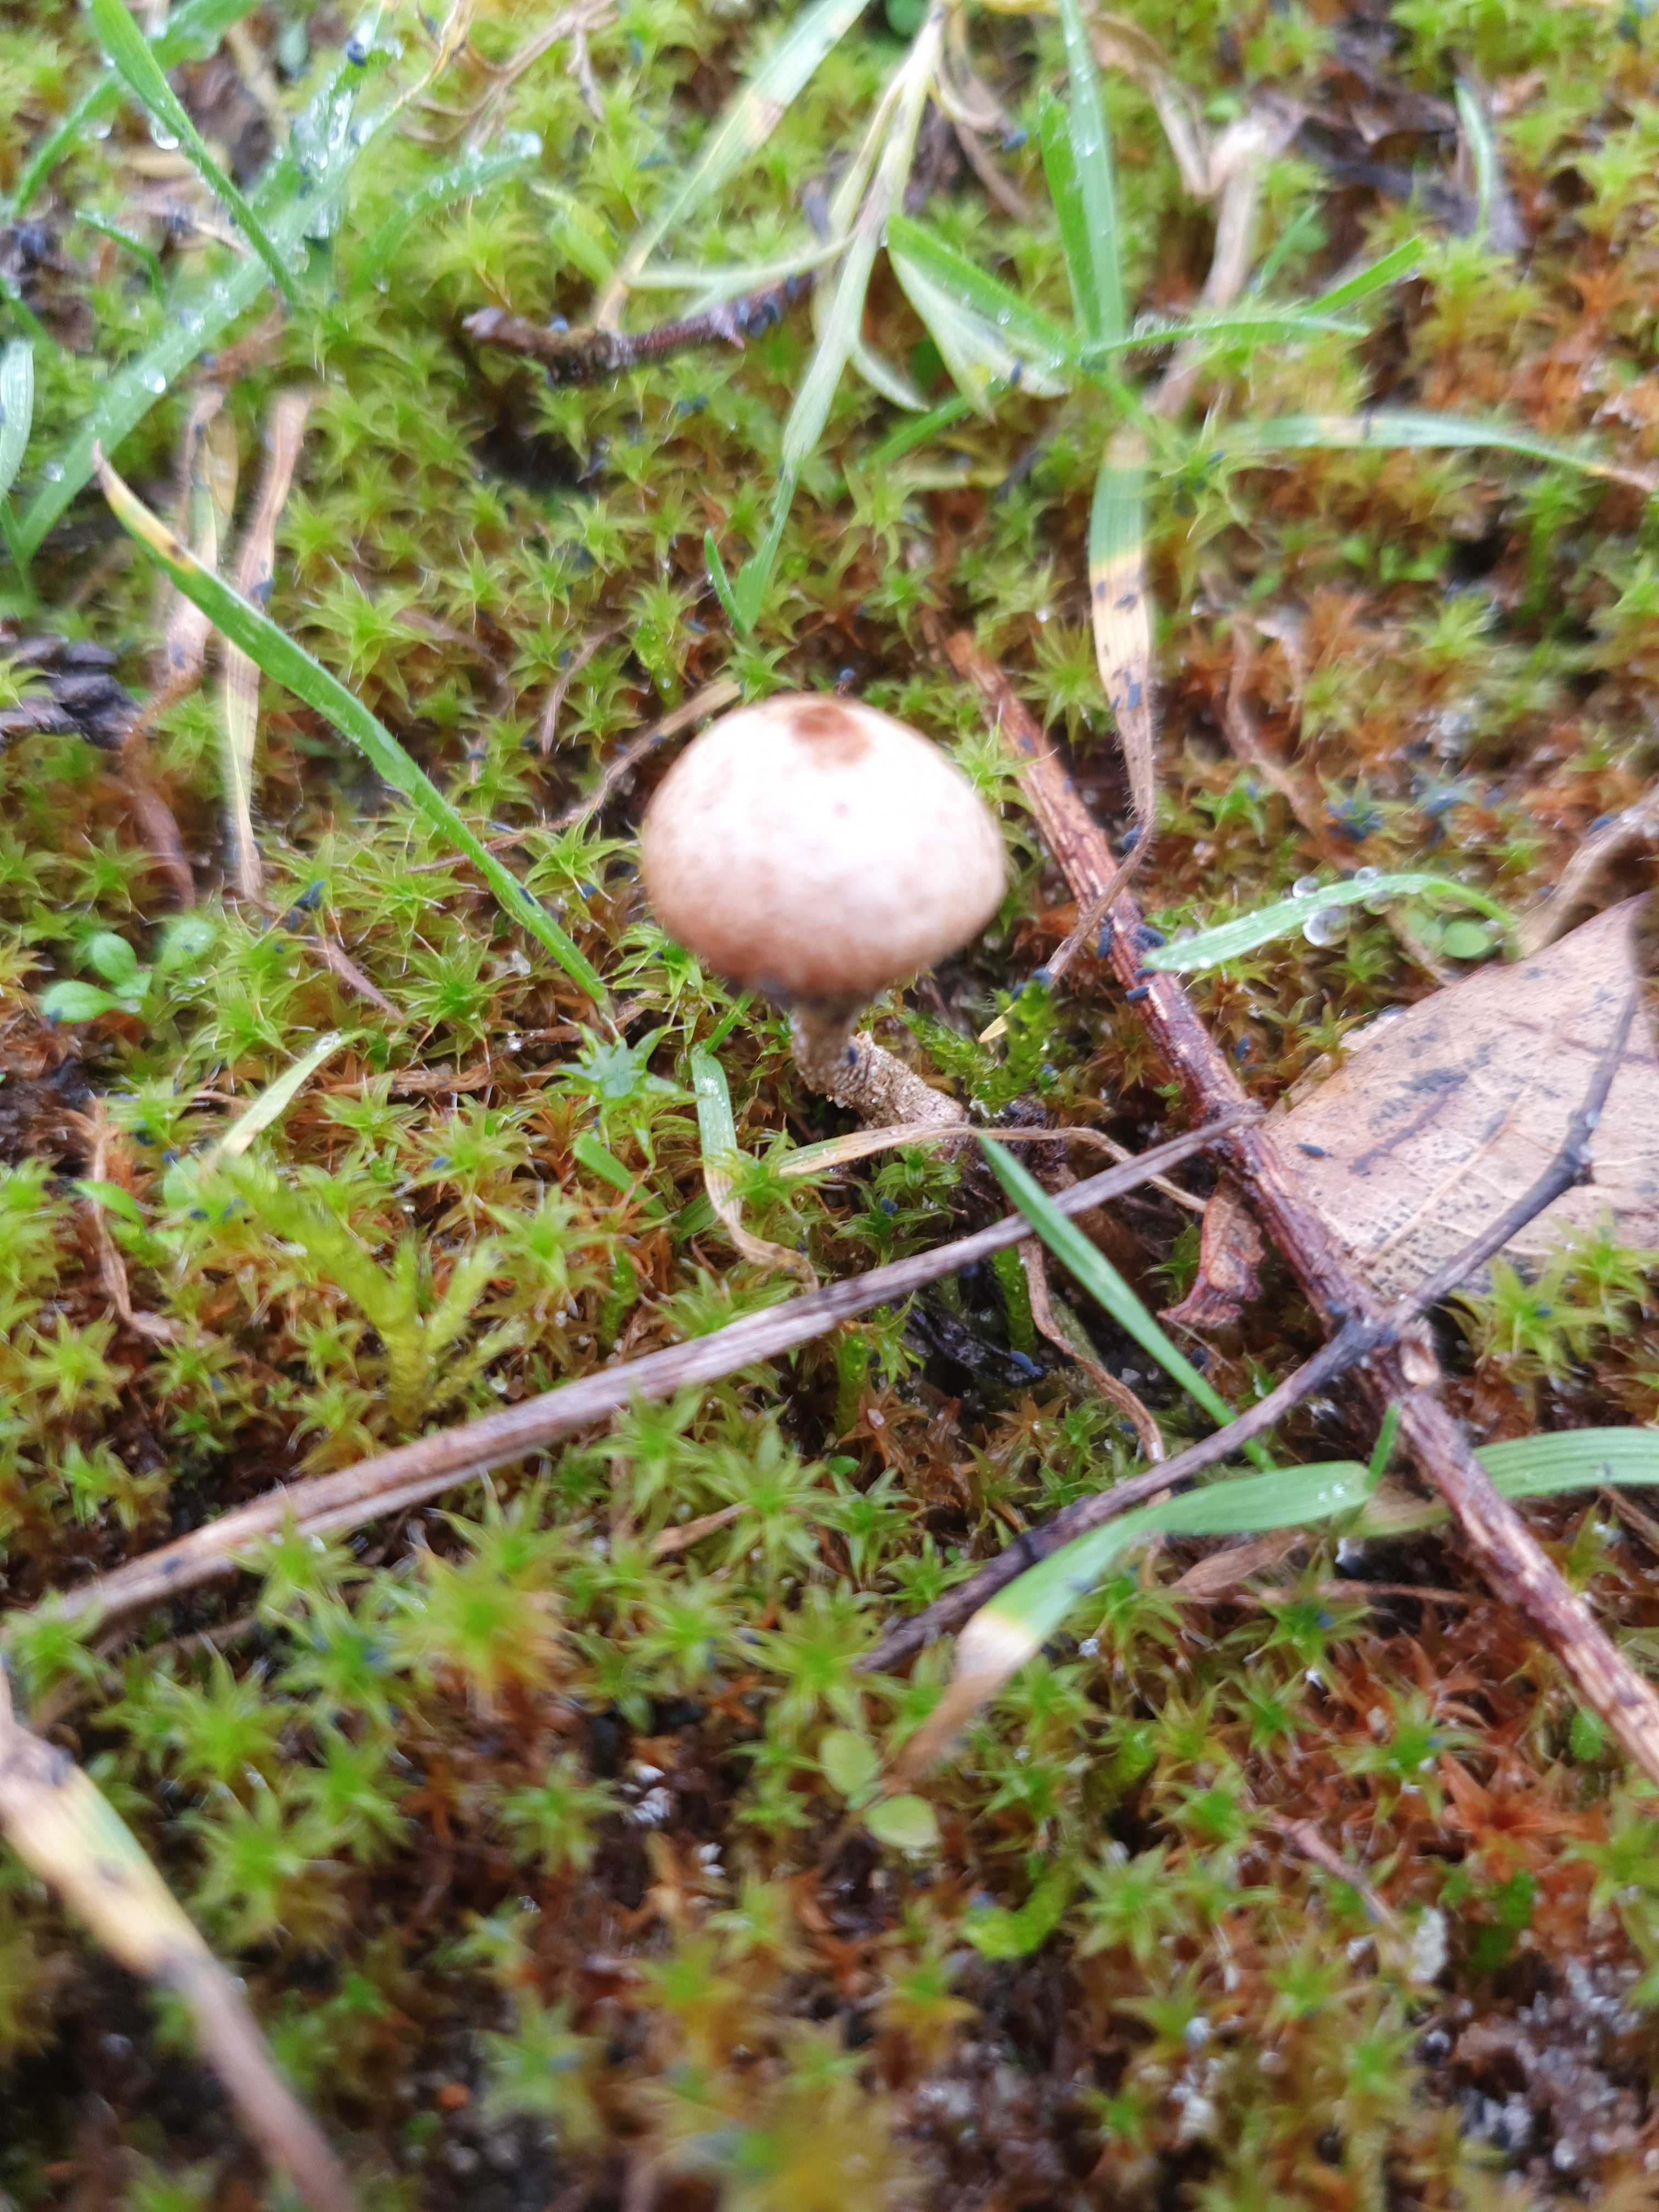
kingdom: Fungi
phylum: Basidiomycota
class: Agaricomycetes
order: Agaricales
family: Agaricaceae
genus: Tulostoma
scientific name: Tulostoma brumale
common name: vinter-stilkbovist
